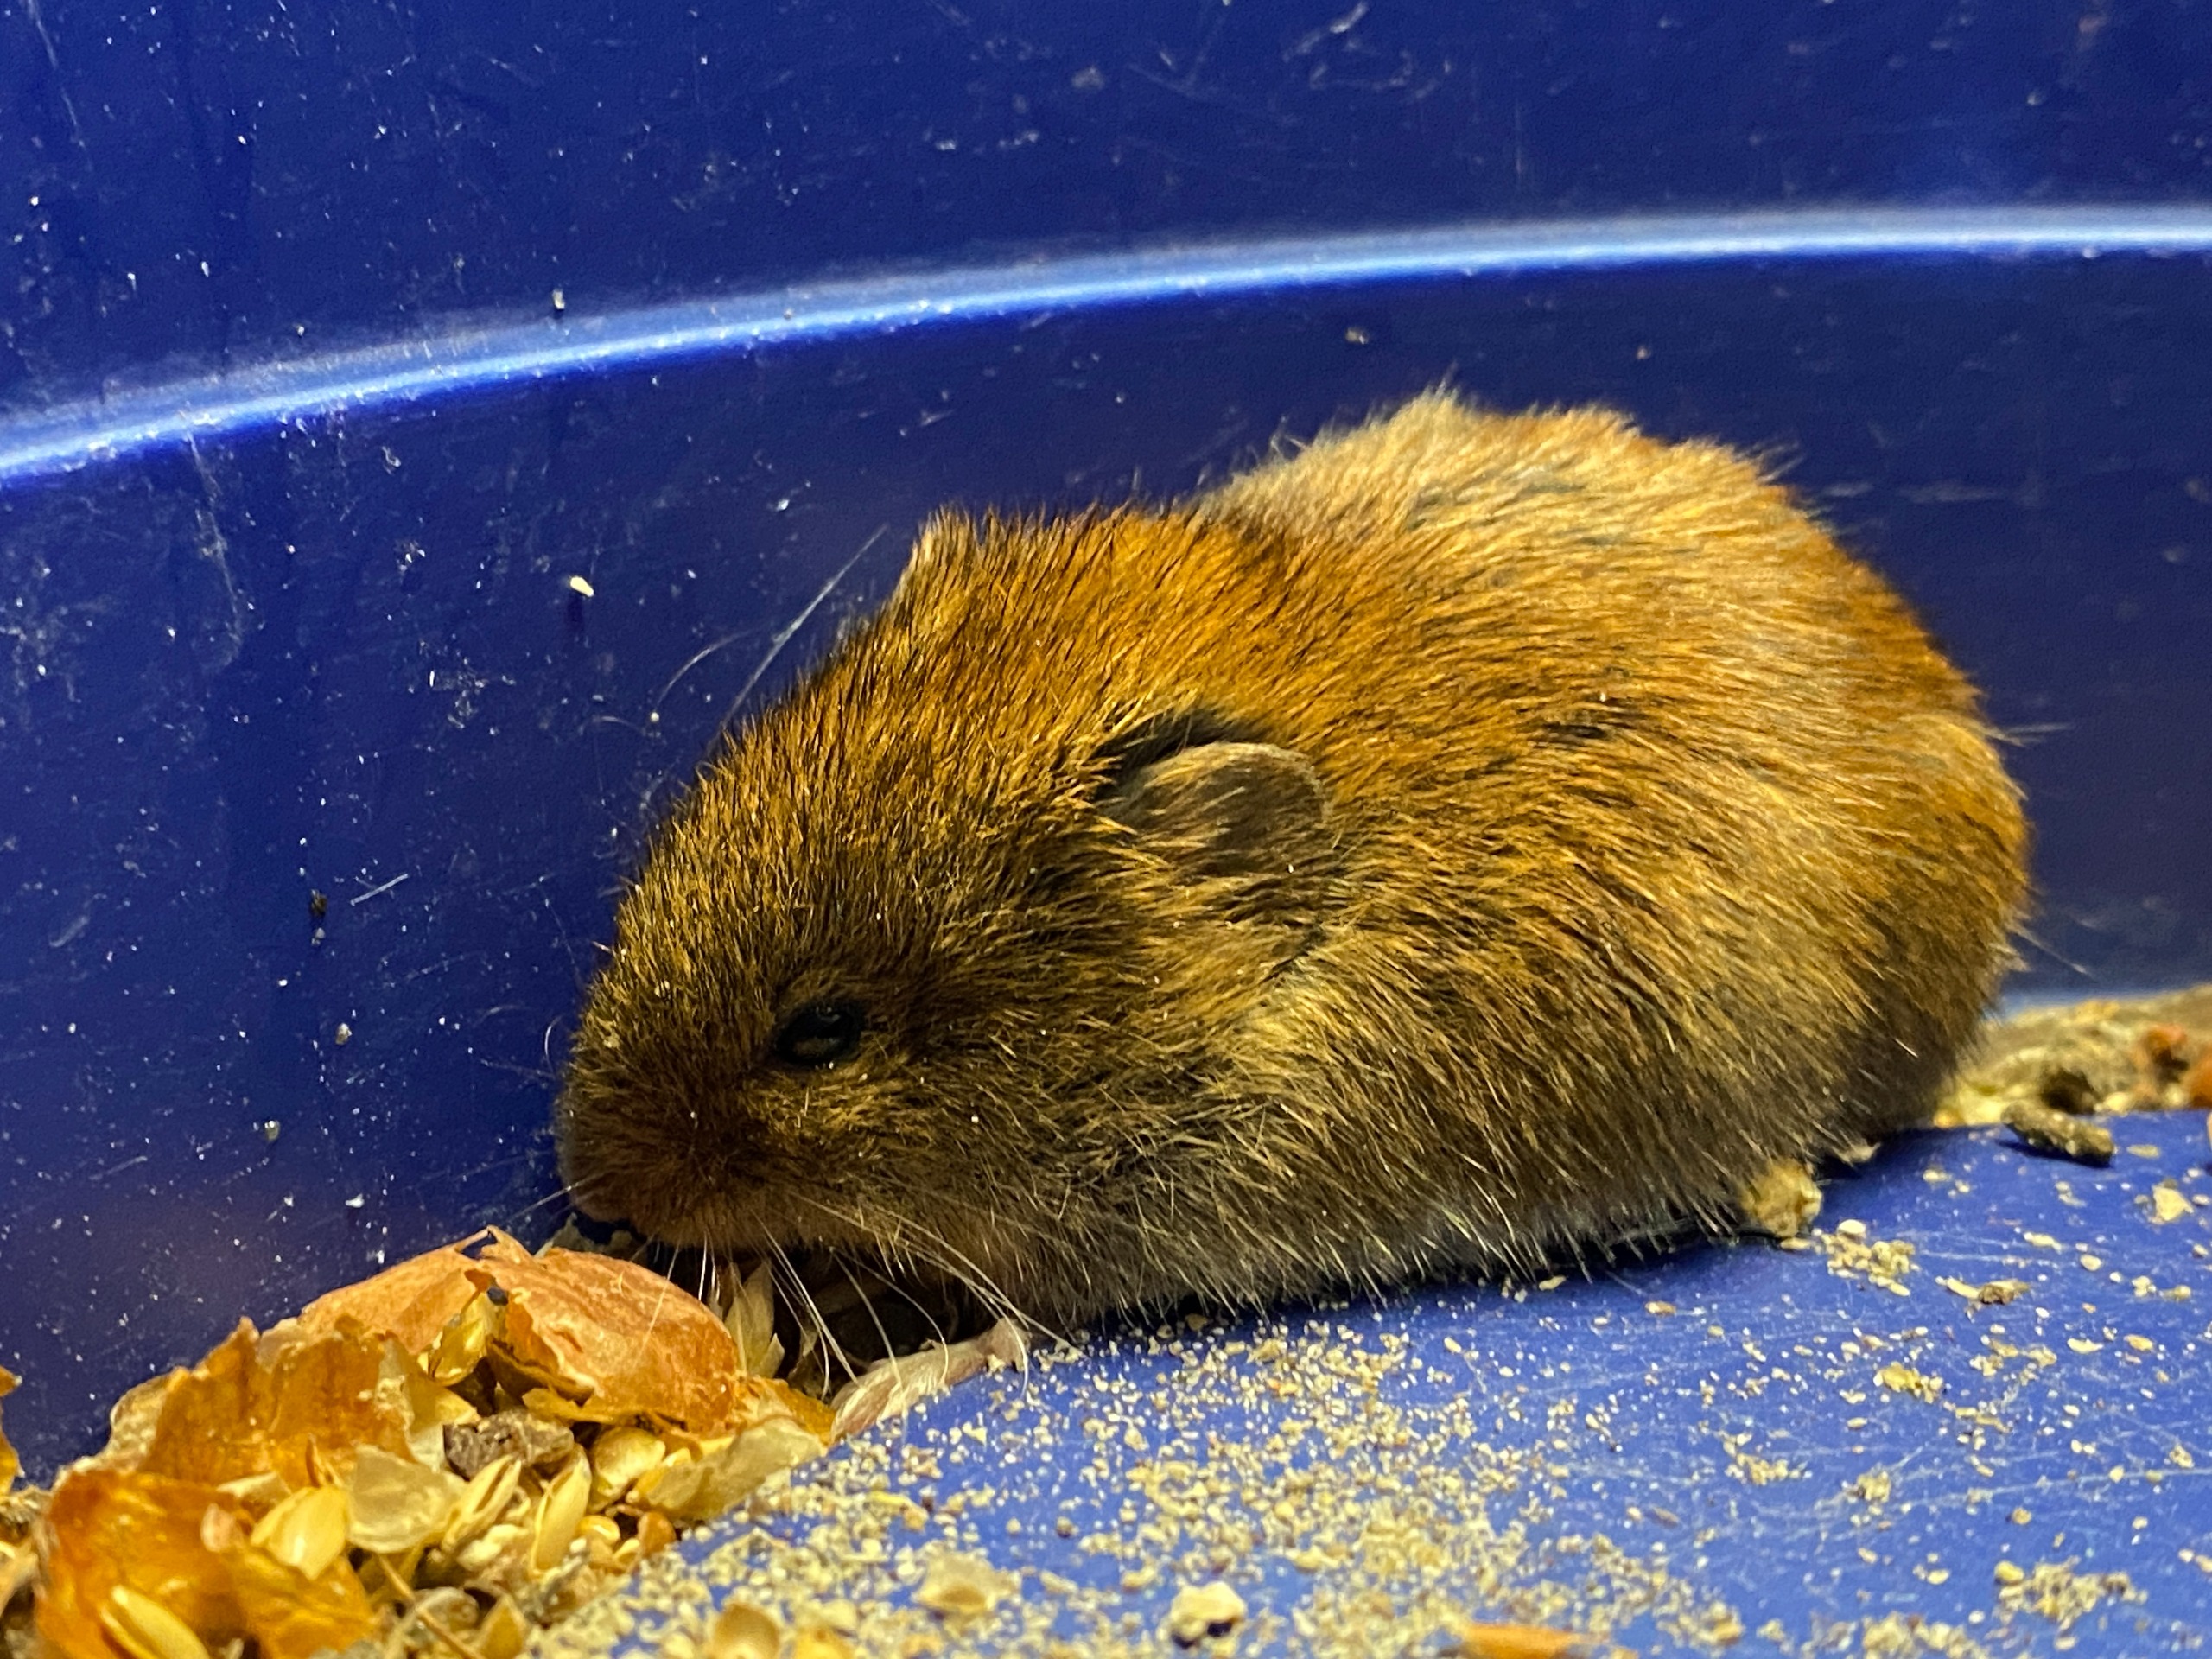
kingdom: Animalia
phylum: Chordata
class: Mammalia
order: Rodentia
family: Cricetidae
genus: Myodes
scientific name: Myodes glareolus
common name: Rødmus
